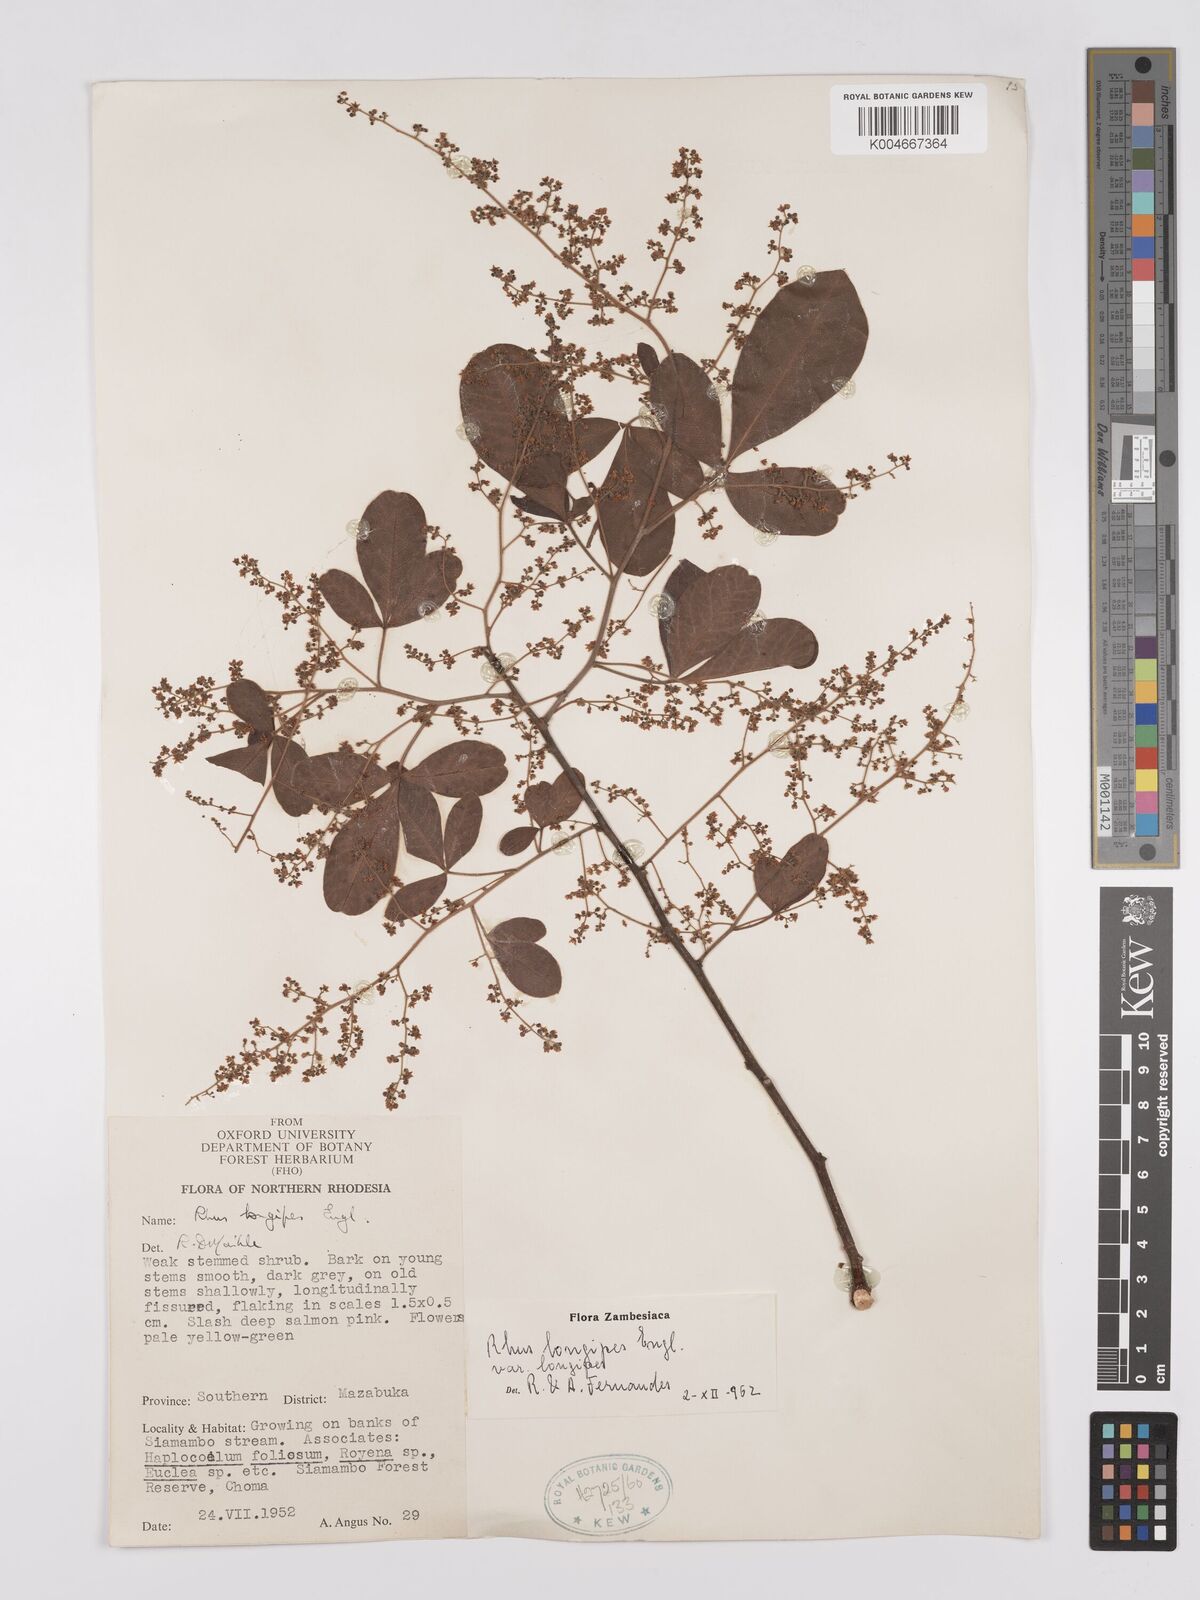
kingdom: Plantae
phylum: Tracheophyta
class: Magnoliopsida
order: Sapindales
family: Anacardiaceae
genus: Searsia
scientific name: Searsia longipes
